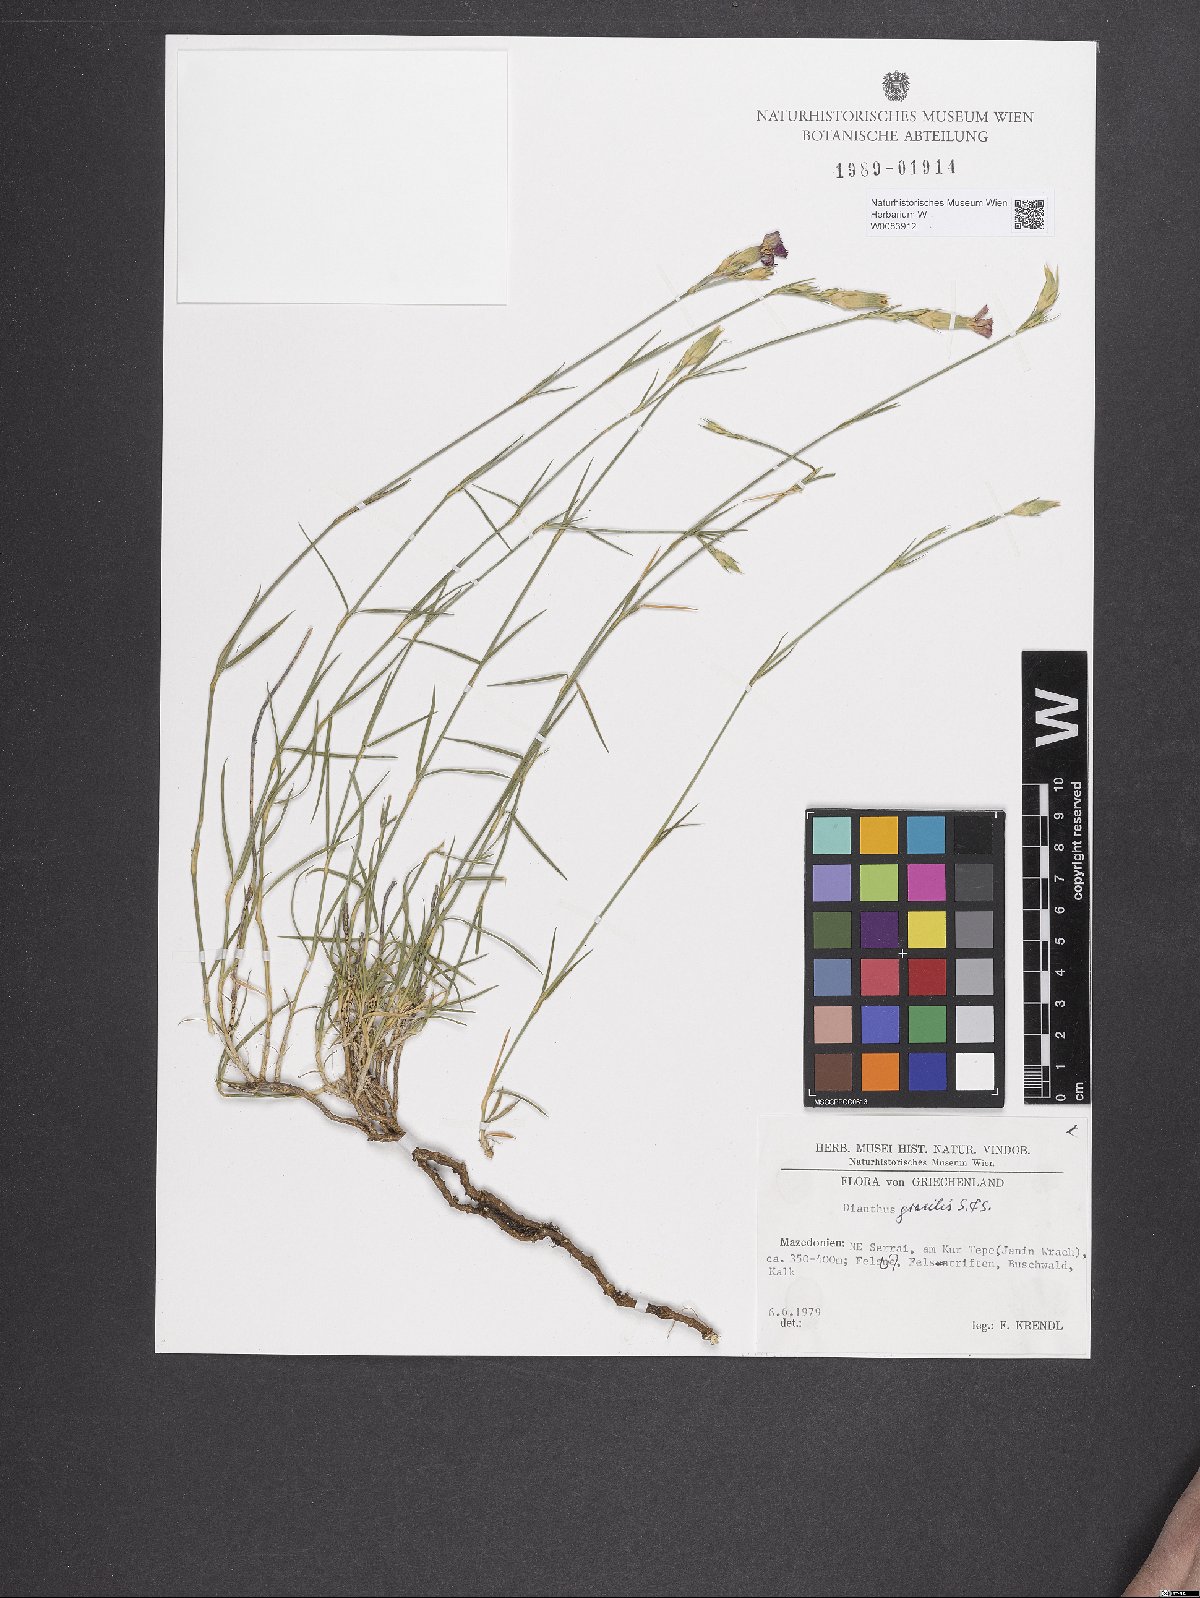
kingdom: Plantae
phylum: Tracheophyta
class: Magnoliopsida
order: Caryophyllales
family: Caryophyllaceae
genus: Dianthus
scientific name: Dianthus gracilis
